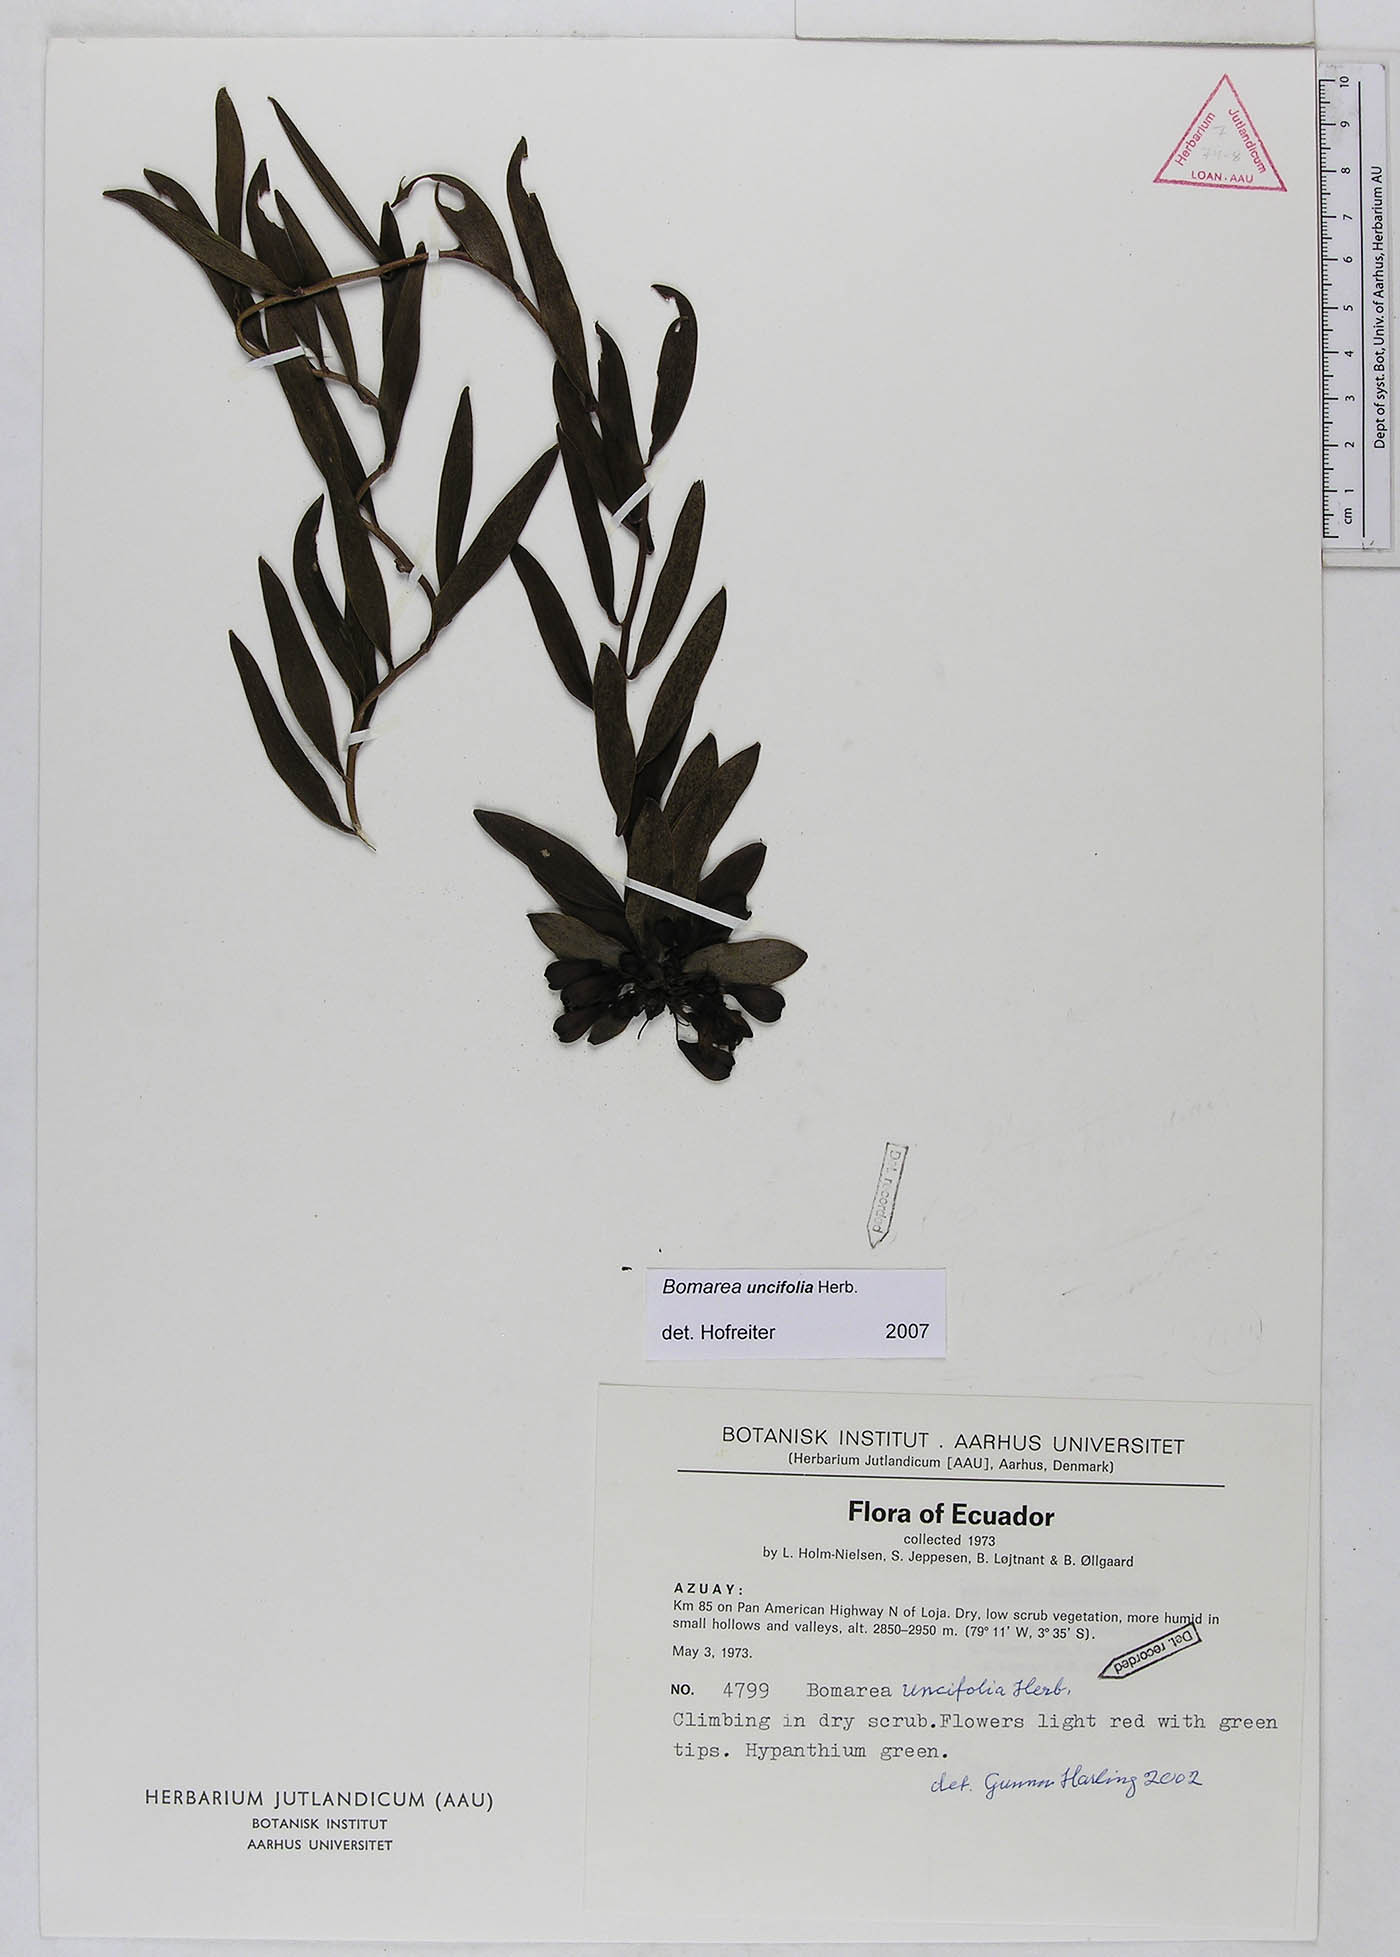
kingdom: Plantae
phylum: Tracheophyta
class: Liliopsida
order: Liliales
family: Alstroemeriaceae
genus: Bomarea
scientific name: Bomarea uncifolia
